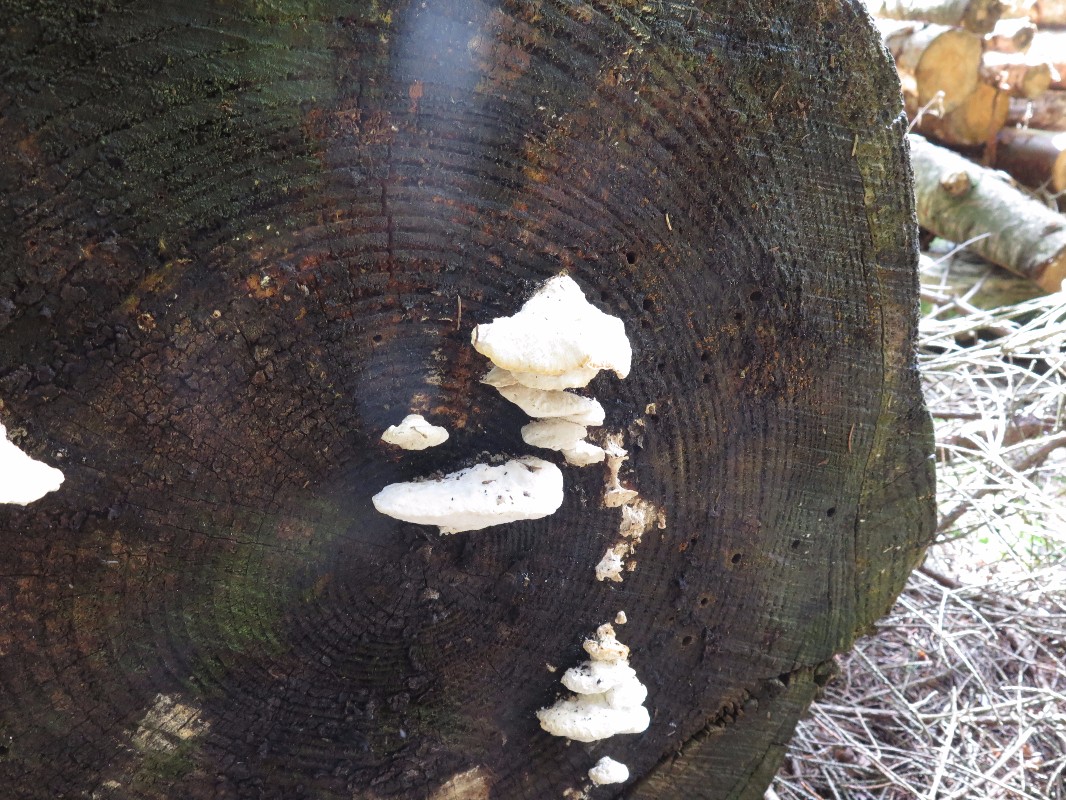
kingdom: Fungi
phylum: Basidiomycota
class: Agaricomycetes
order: Polyporales
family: Dacryobolaceae
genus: Postia
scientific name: Postia
